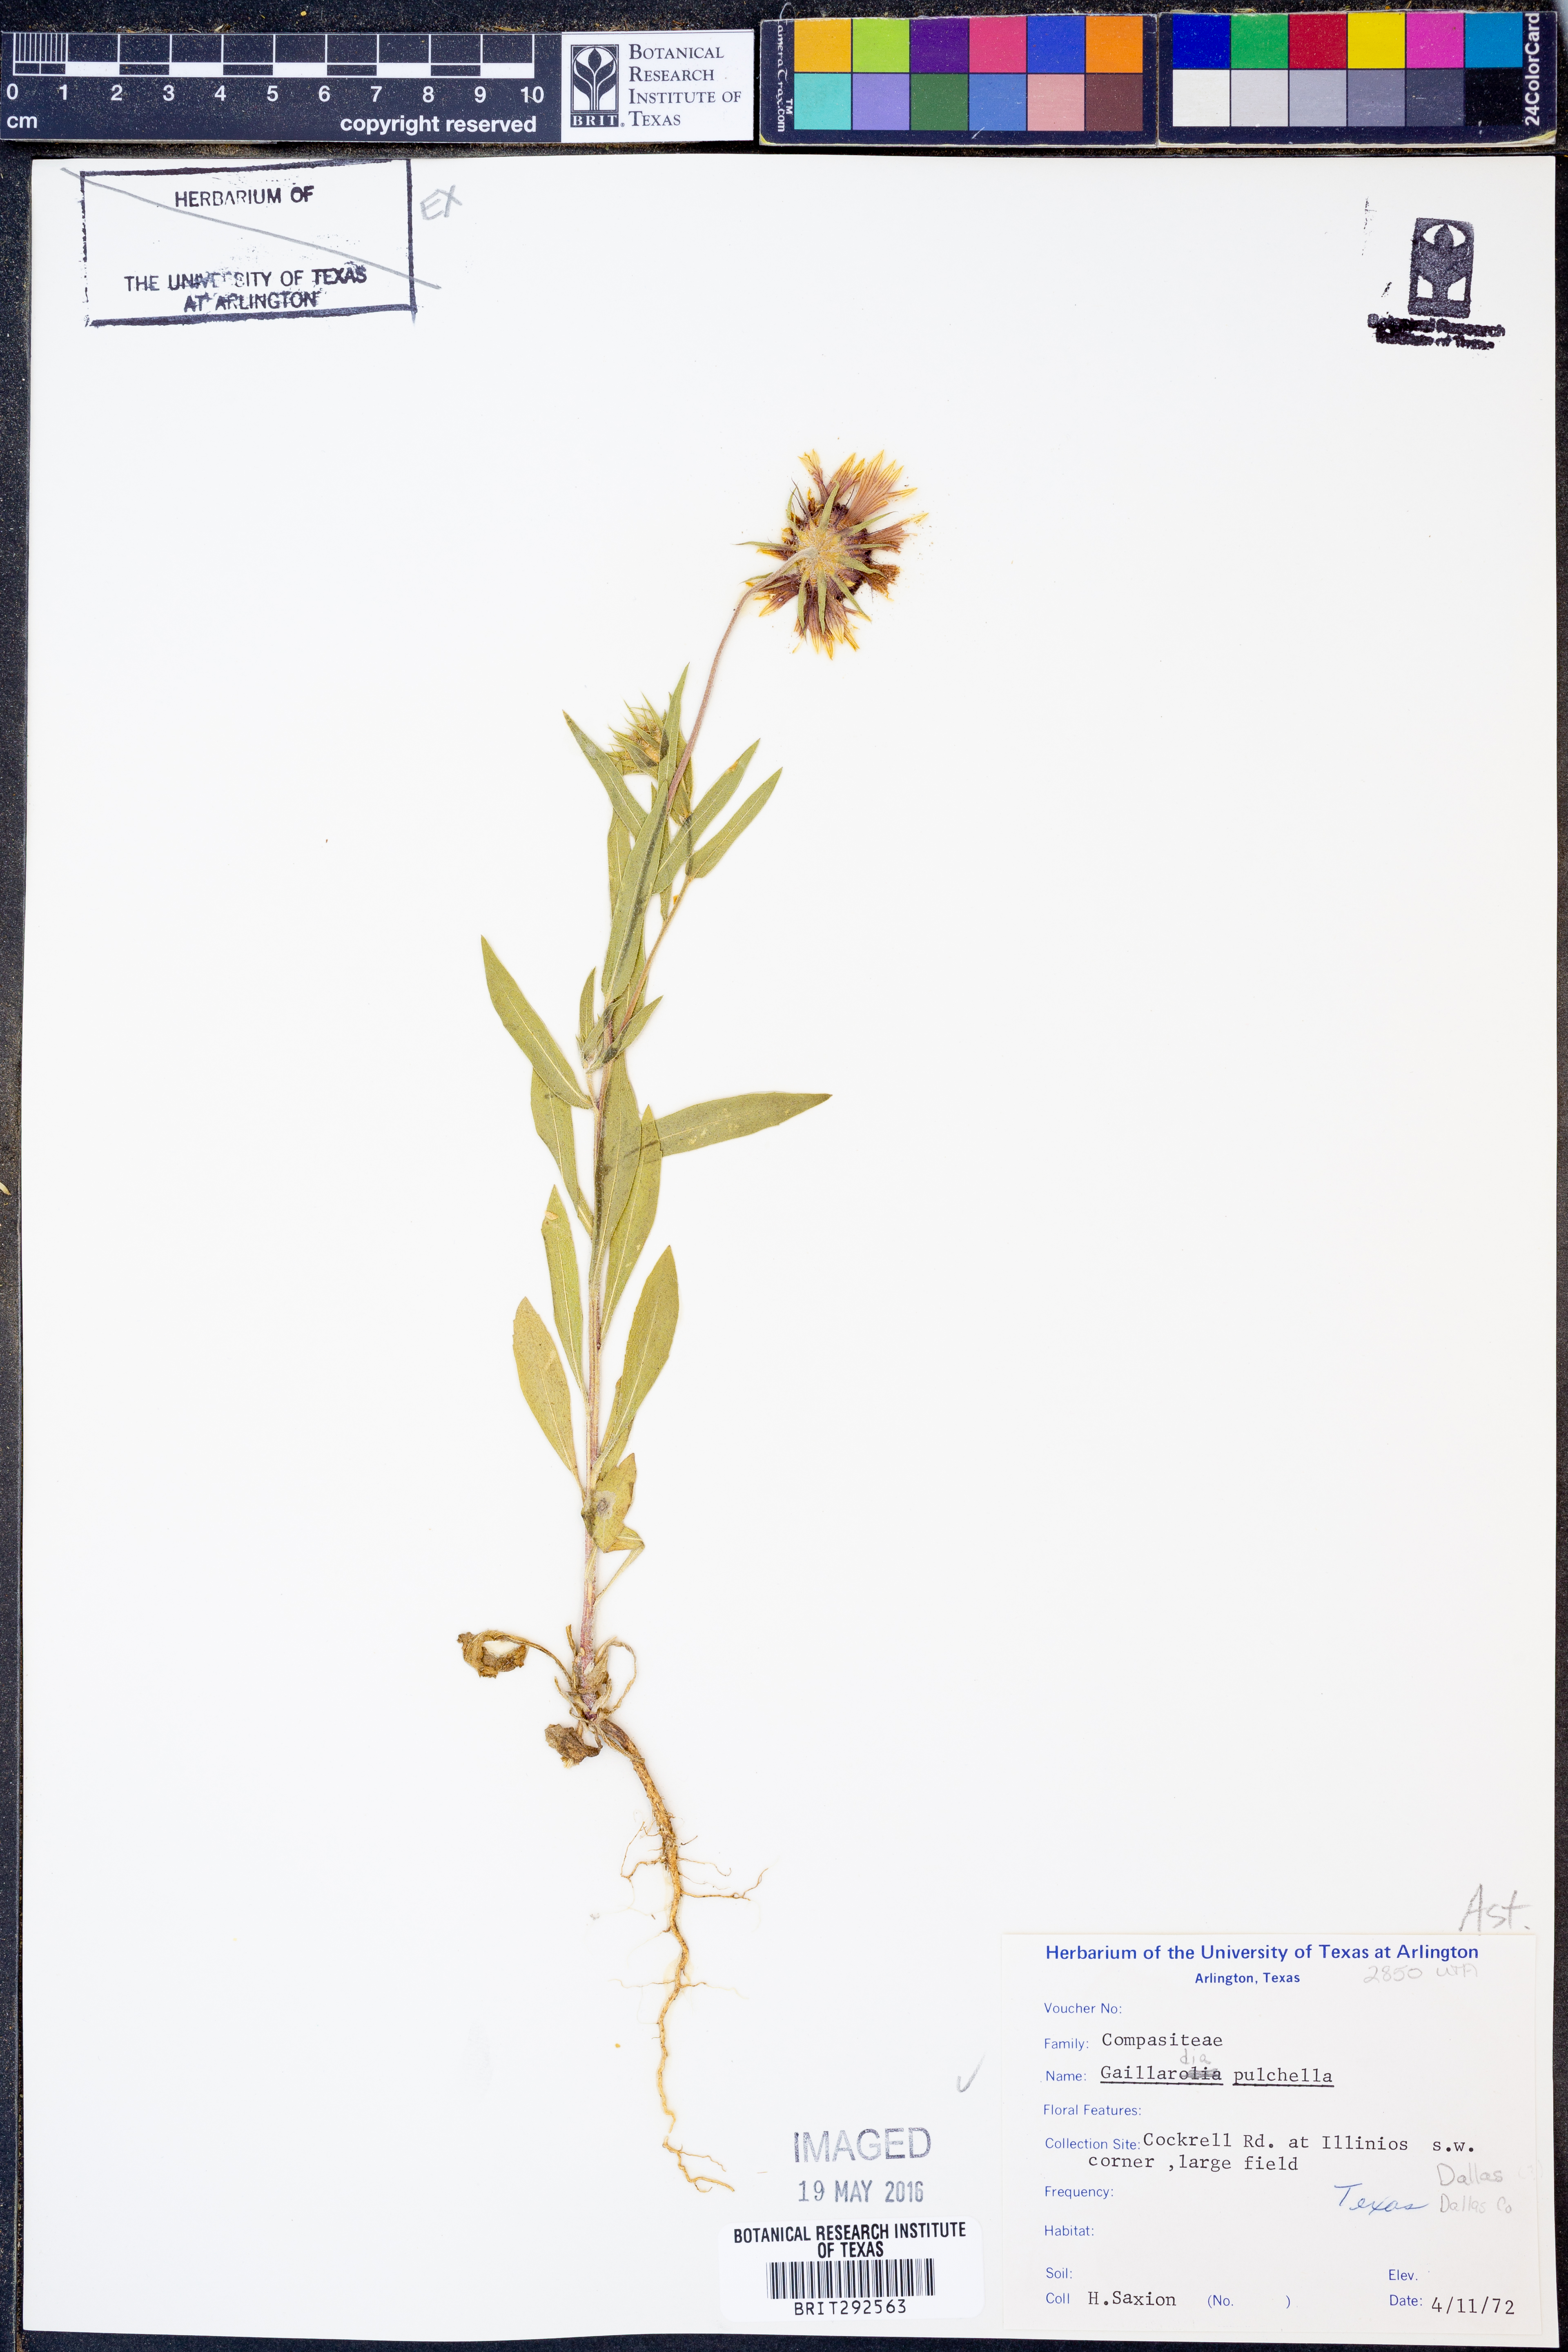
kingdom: Plantae
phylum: Tracheophyta
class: Magnoliopsida
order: Asterales
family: Asteraceae
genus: Gaillardia
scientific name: Gaillardia pulchella
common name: Firewheel
